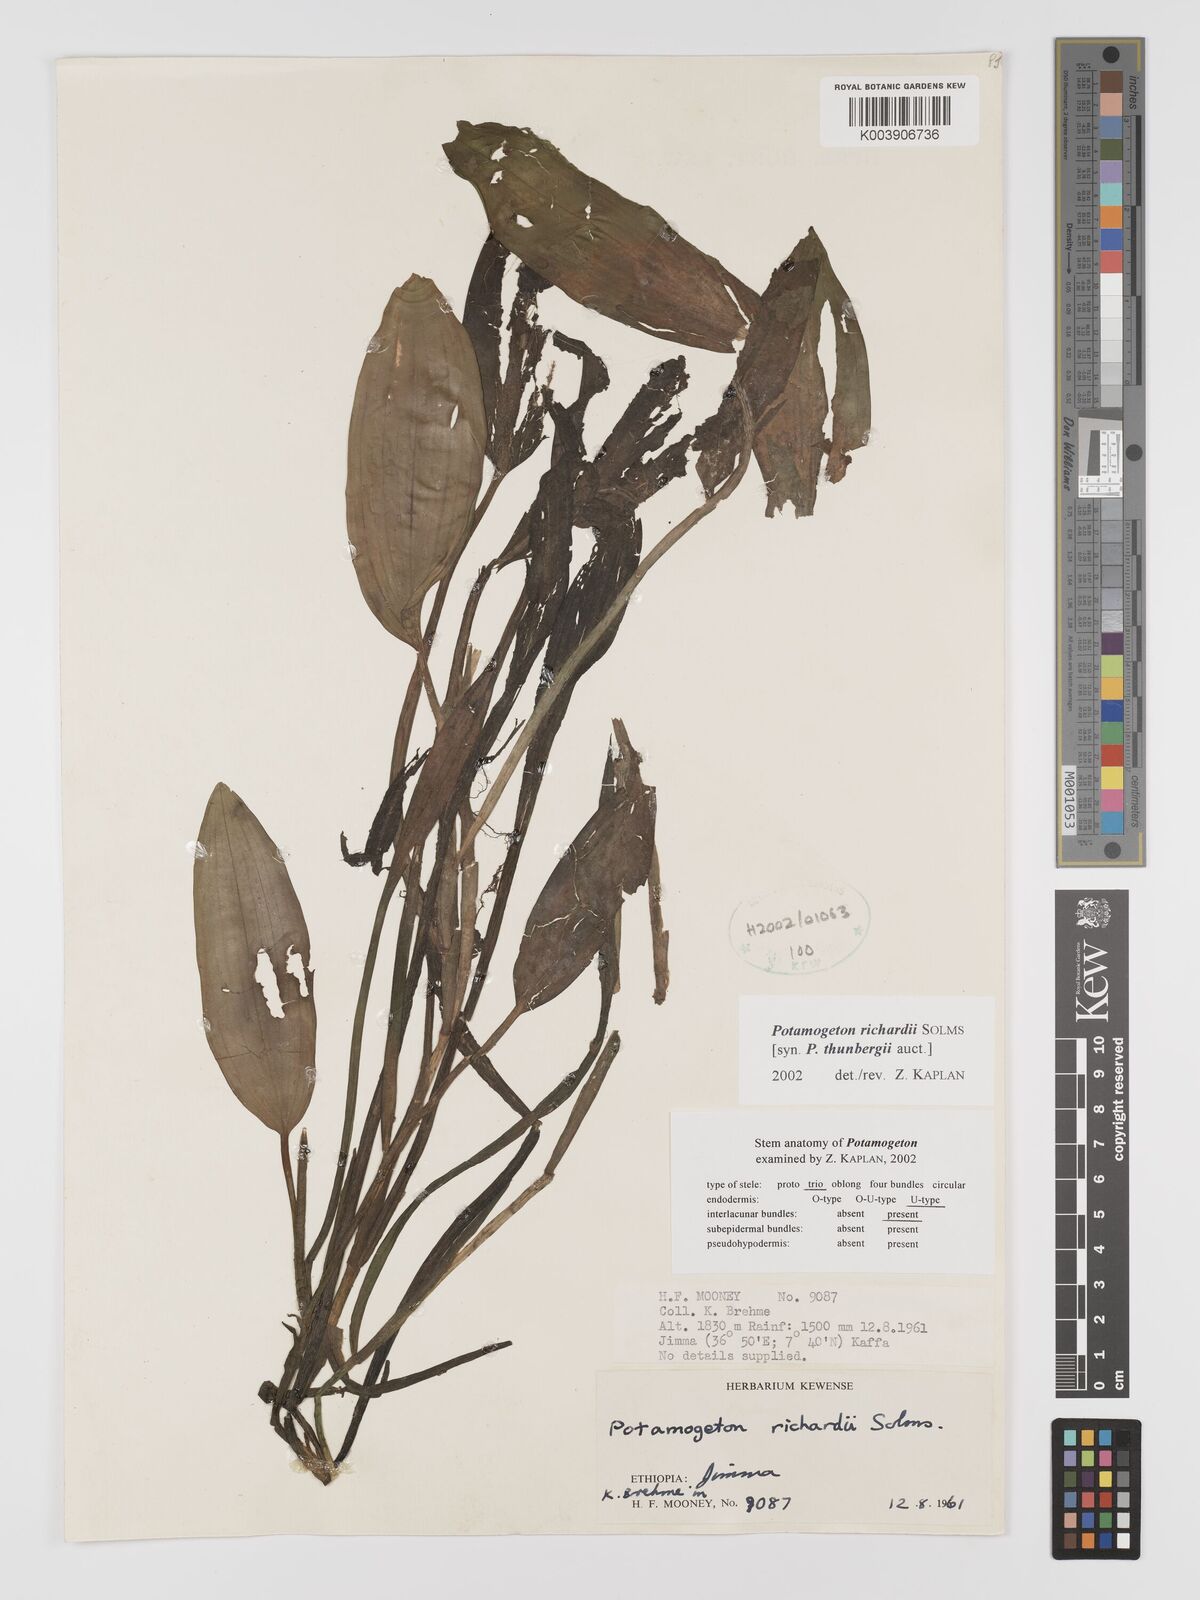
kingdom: Plantae
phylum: Tracheophyta
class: Liliopsida
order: Alismatales
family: Potamogetonaceae
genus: Potamogeton
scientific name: Potamogeton richardii
